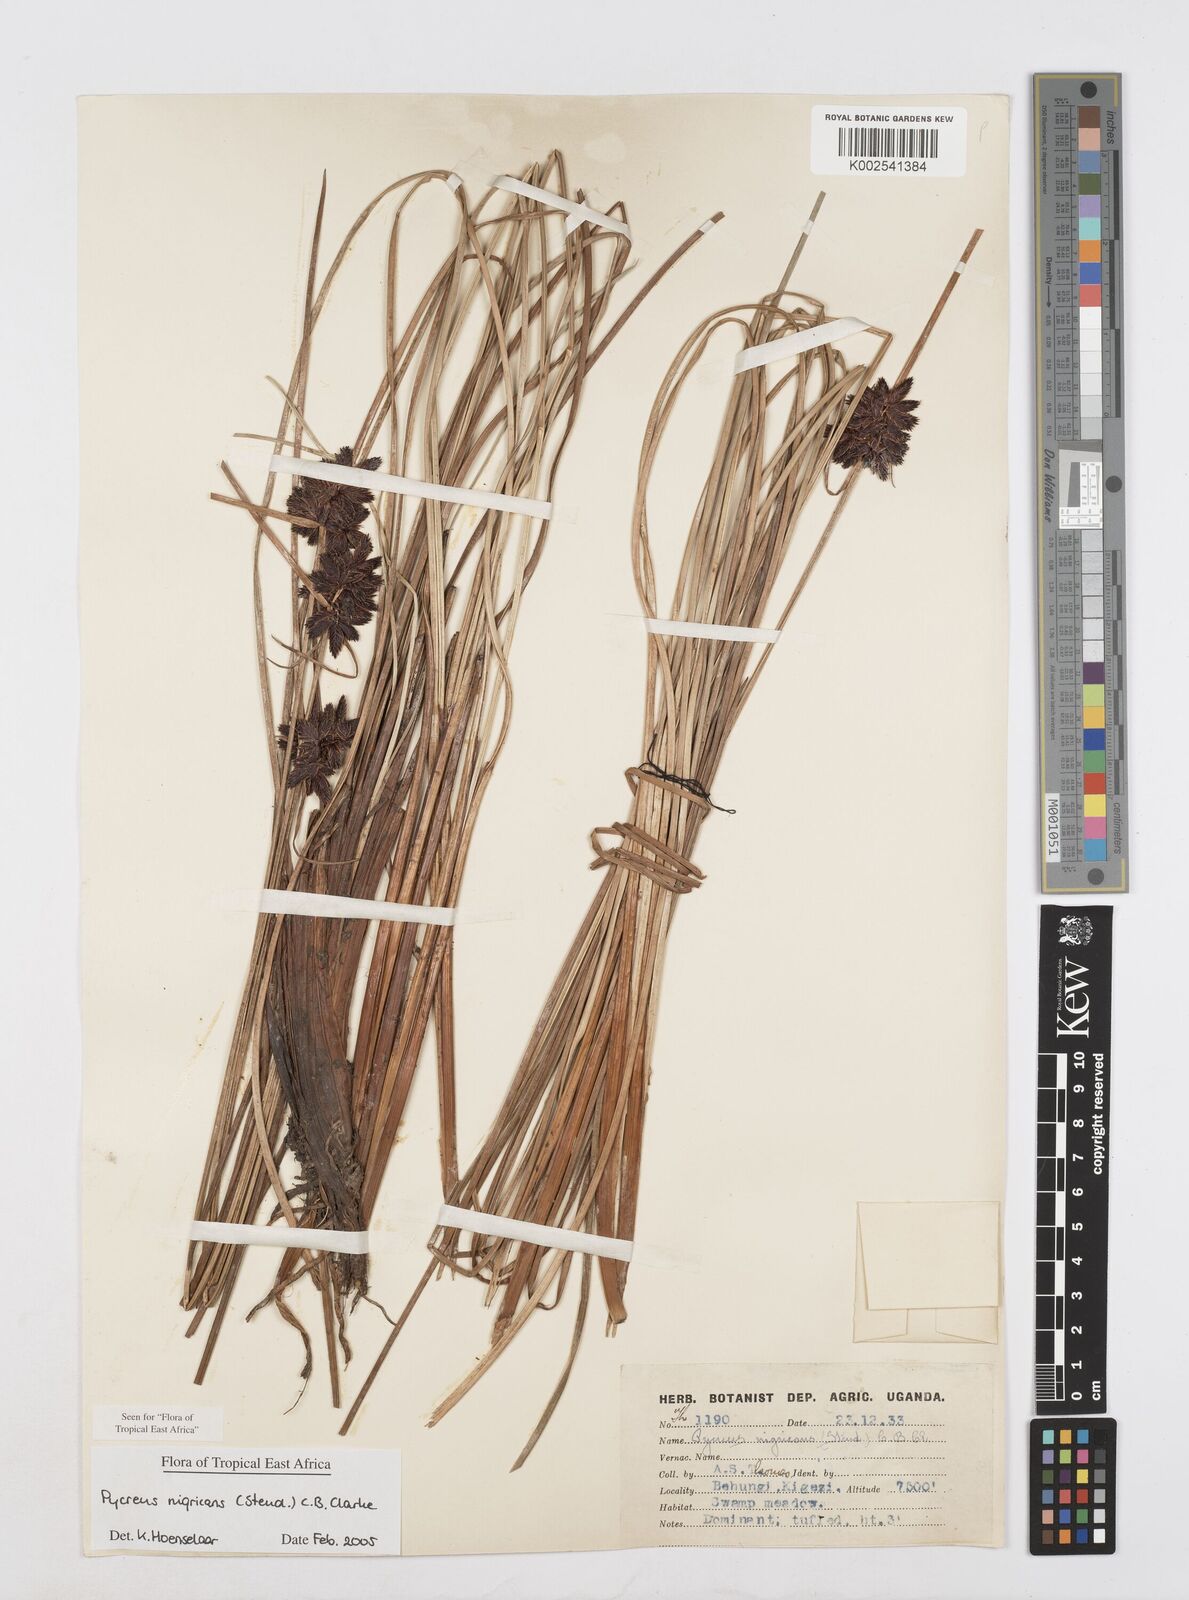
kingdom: Plantae
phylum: Tracheophyta
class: Liliopsida
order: Poales
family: Cyperaceae
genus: Cyperus
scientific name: Cyperus nigricans
